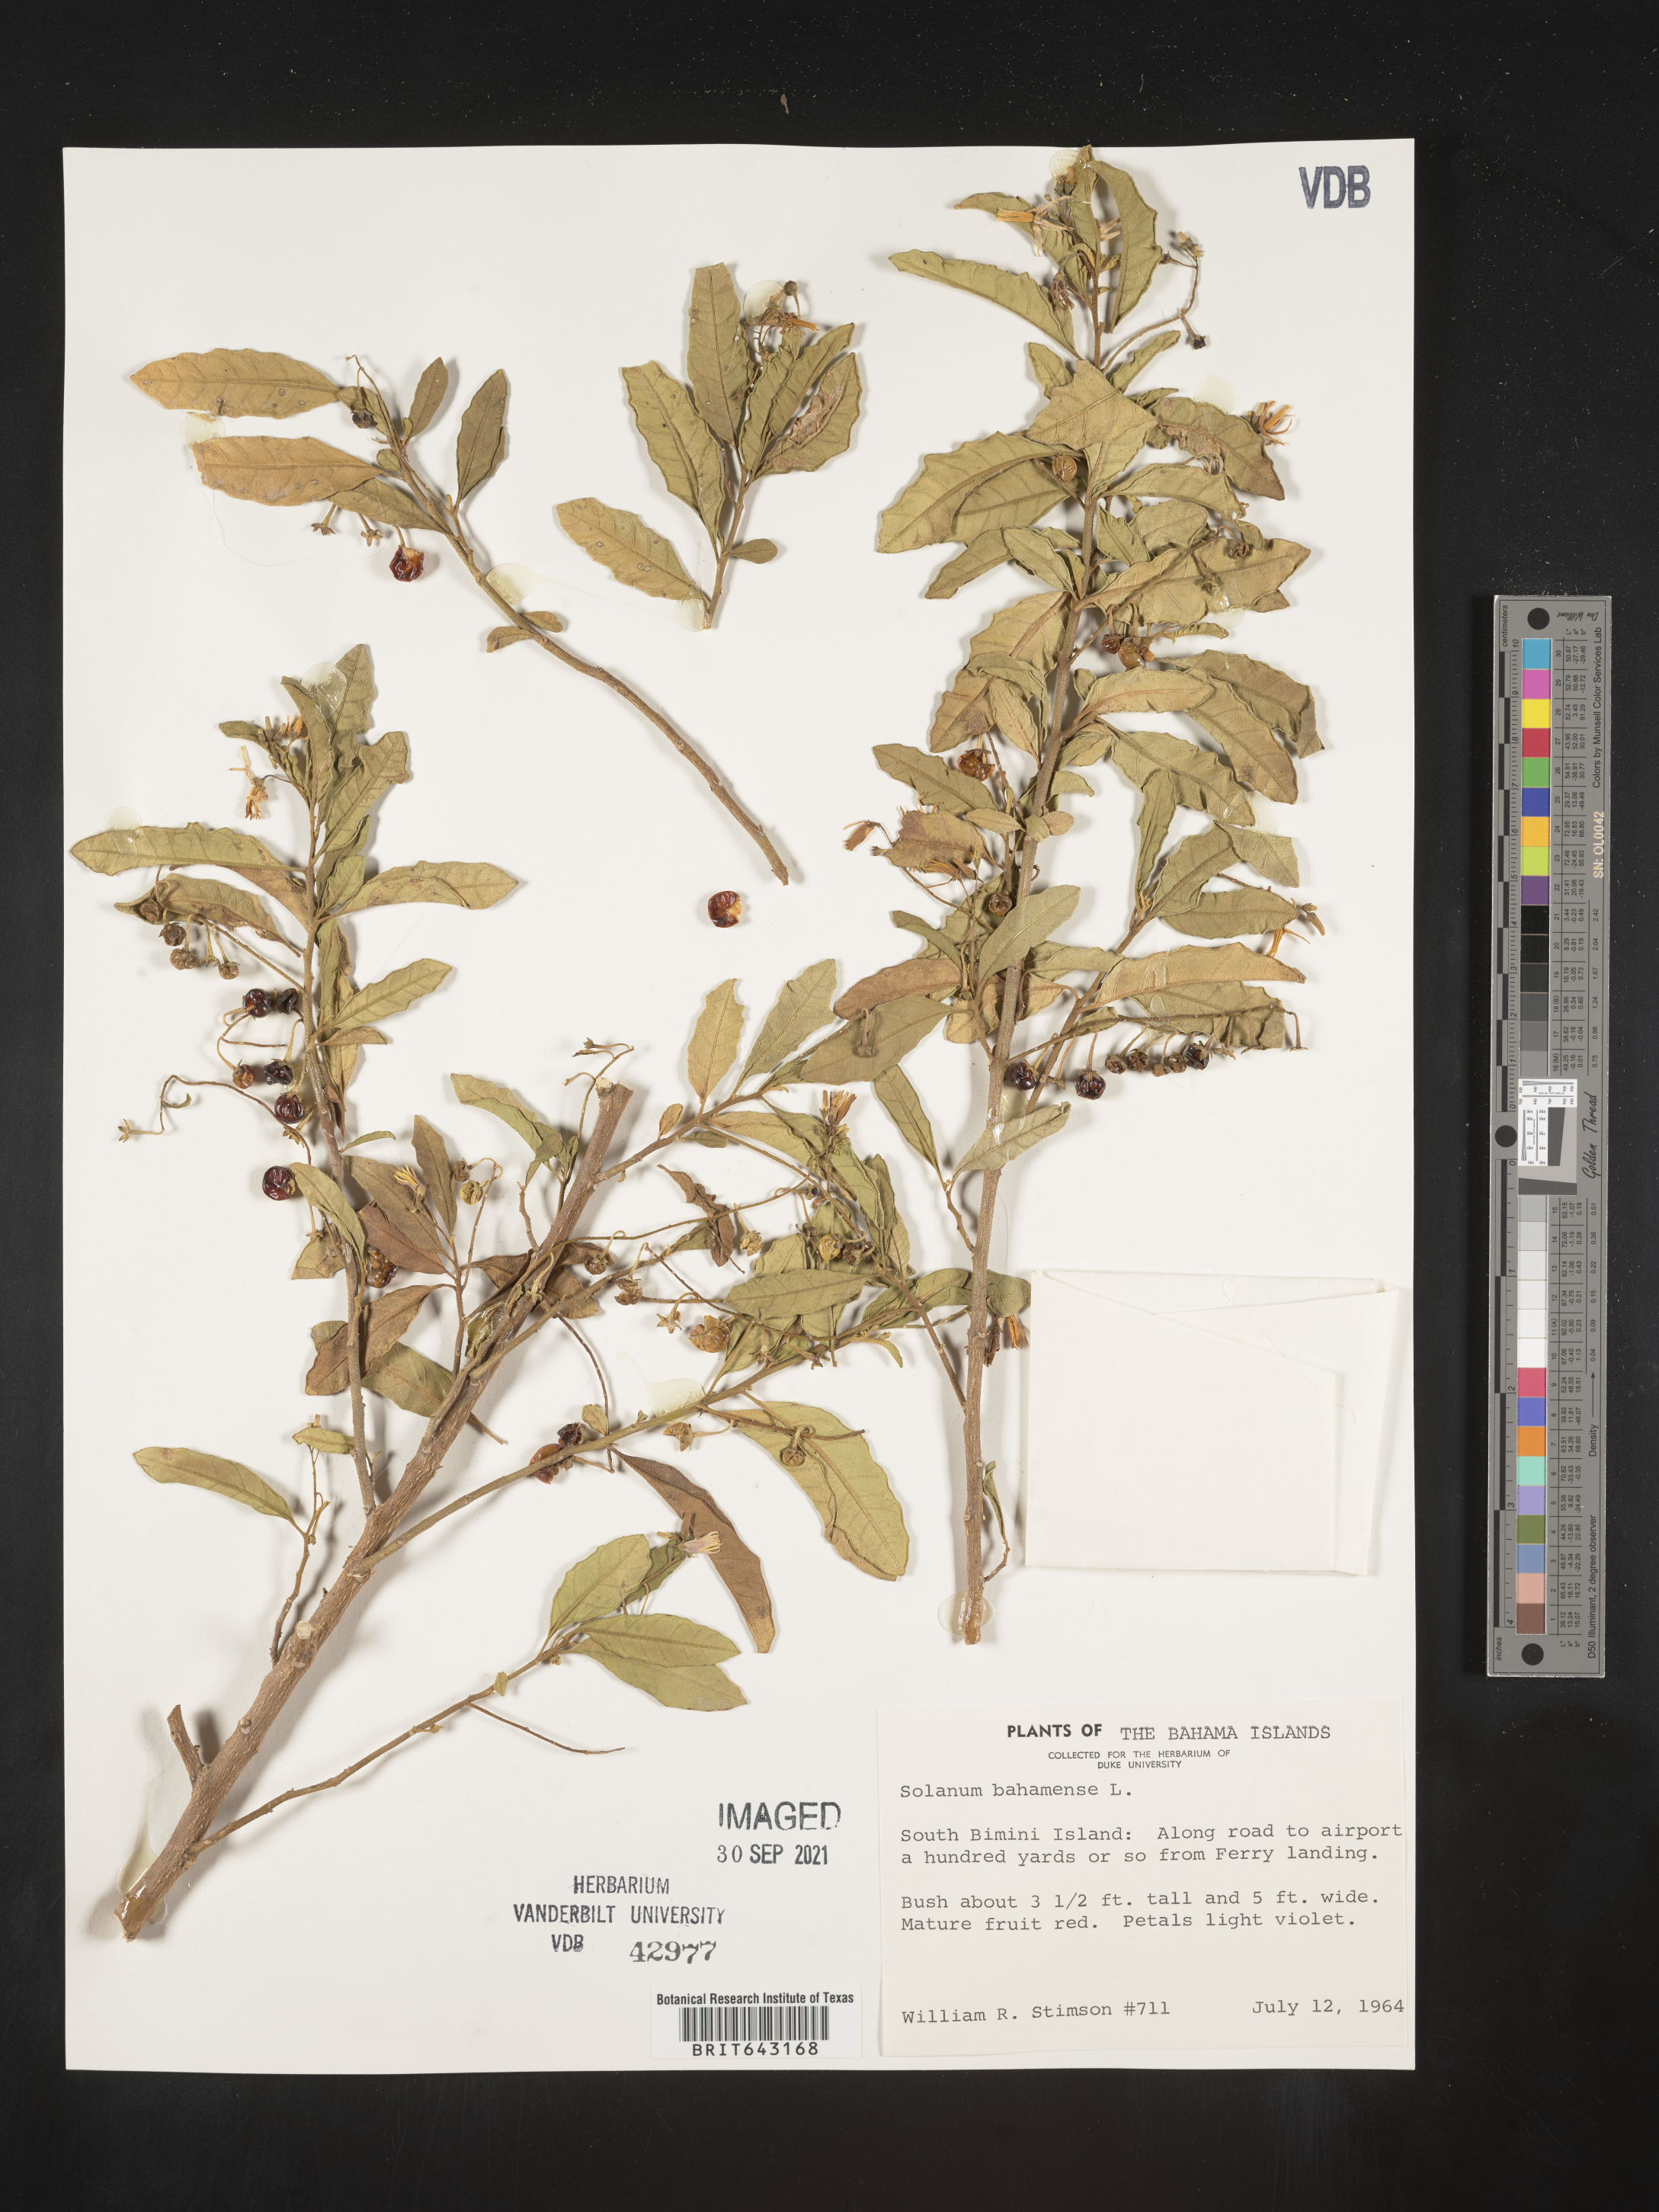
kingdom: Plantae
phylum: Tracheophyta
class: Magnoliopsida
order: Solanales
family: Solanaceae
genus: Solanum
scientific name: Solanum
